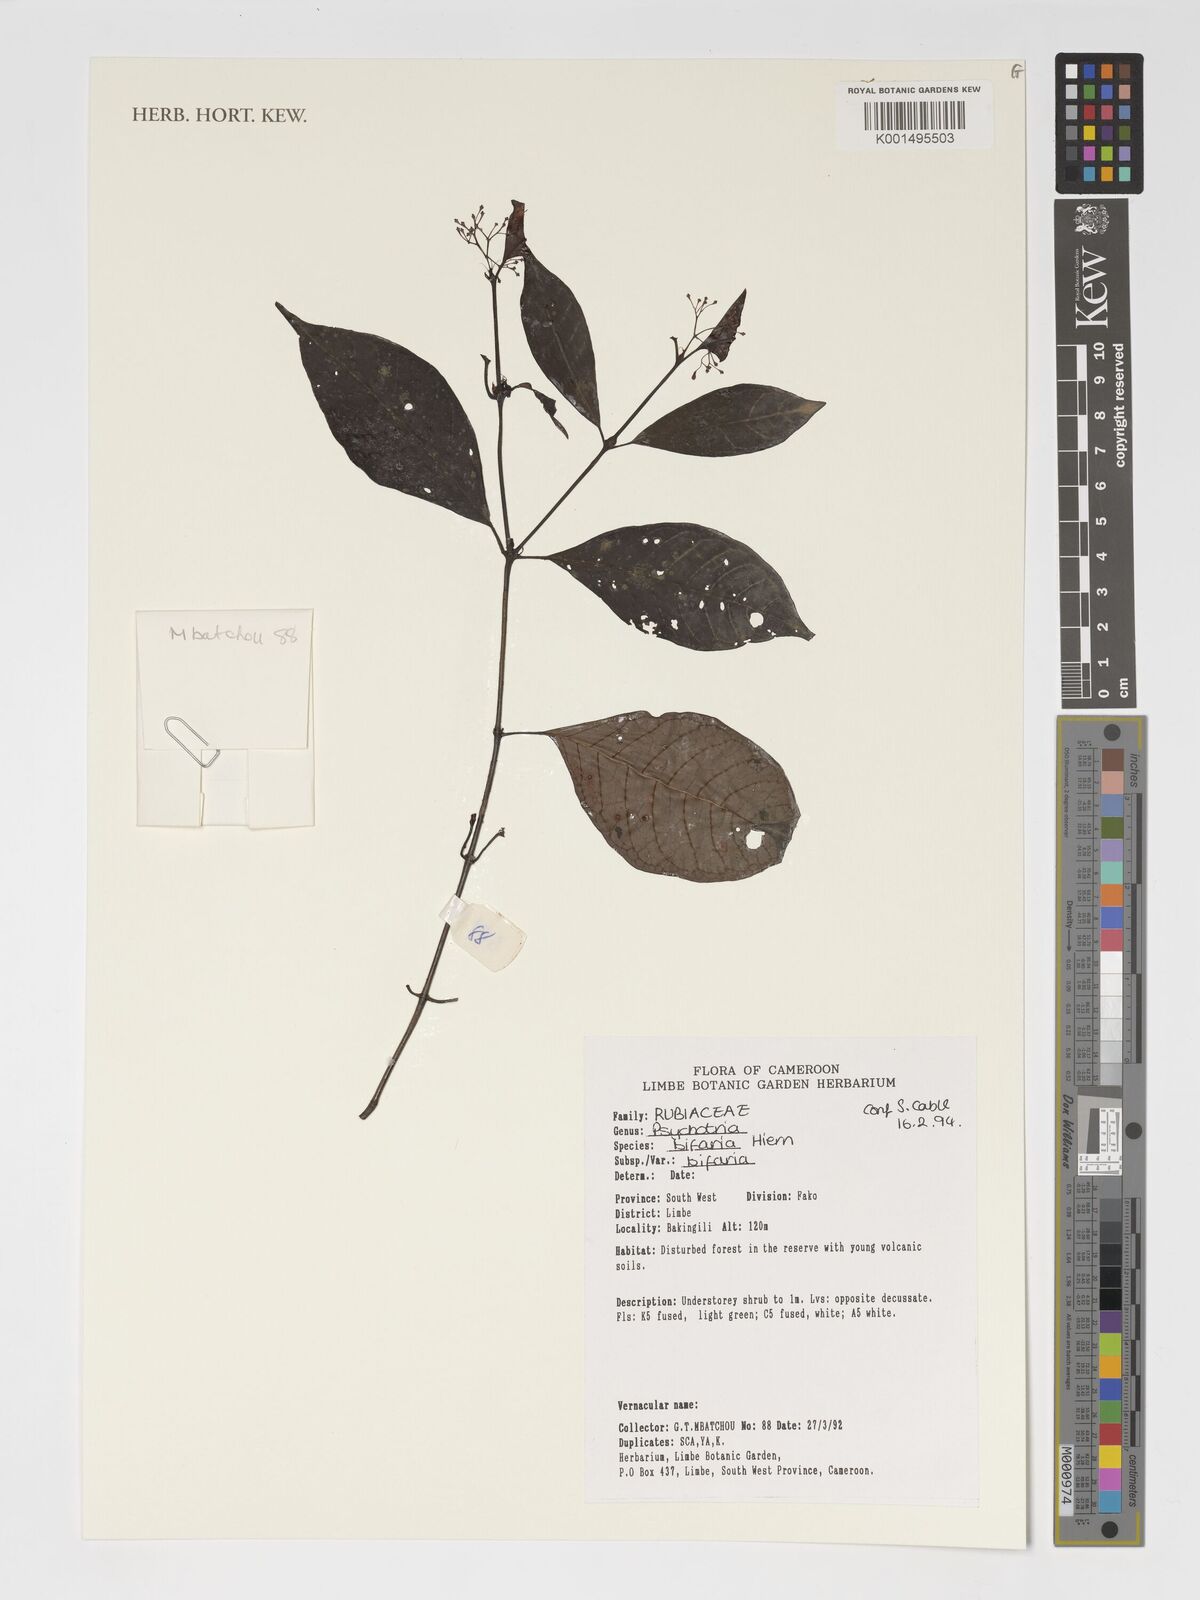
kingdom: Plantae
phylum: Tracheophyta
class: Magnoliopsida
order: Gentianales
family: Rubiaceae
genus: Psychotria
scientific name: Psychotria bifaria
